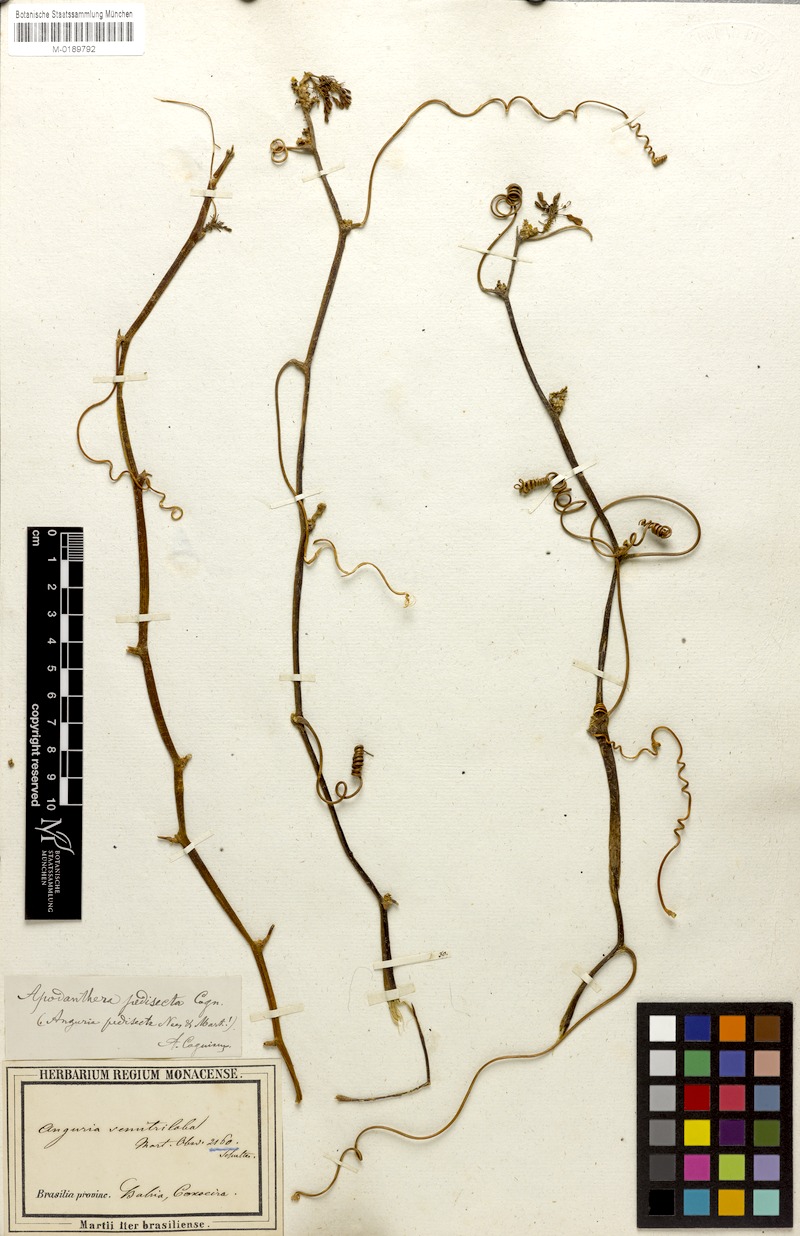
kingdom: Plantae
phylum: Tracheophyta
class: Magnoliopsida
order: Cucurbitales
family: Cucurbitaceae
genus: Cyclanthera
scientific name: Cyclanthera pedata
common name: Slipper goard
